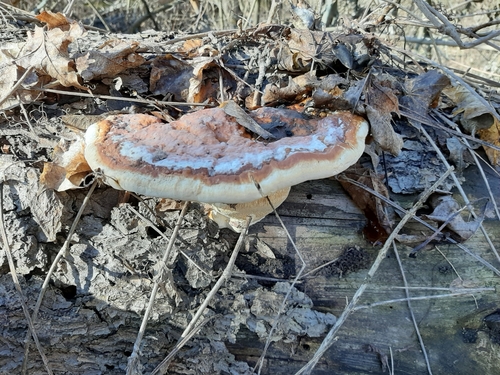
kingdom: Fungi
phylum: Basidiomycota
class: Agaricomycetes
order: Polyporales
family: Fomitopsidaceae
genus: Fomitopsis
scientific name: Fomitopsis pinicola
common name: Red-belted bracket
